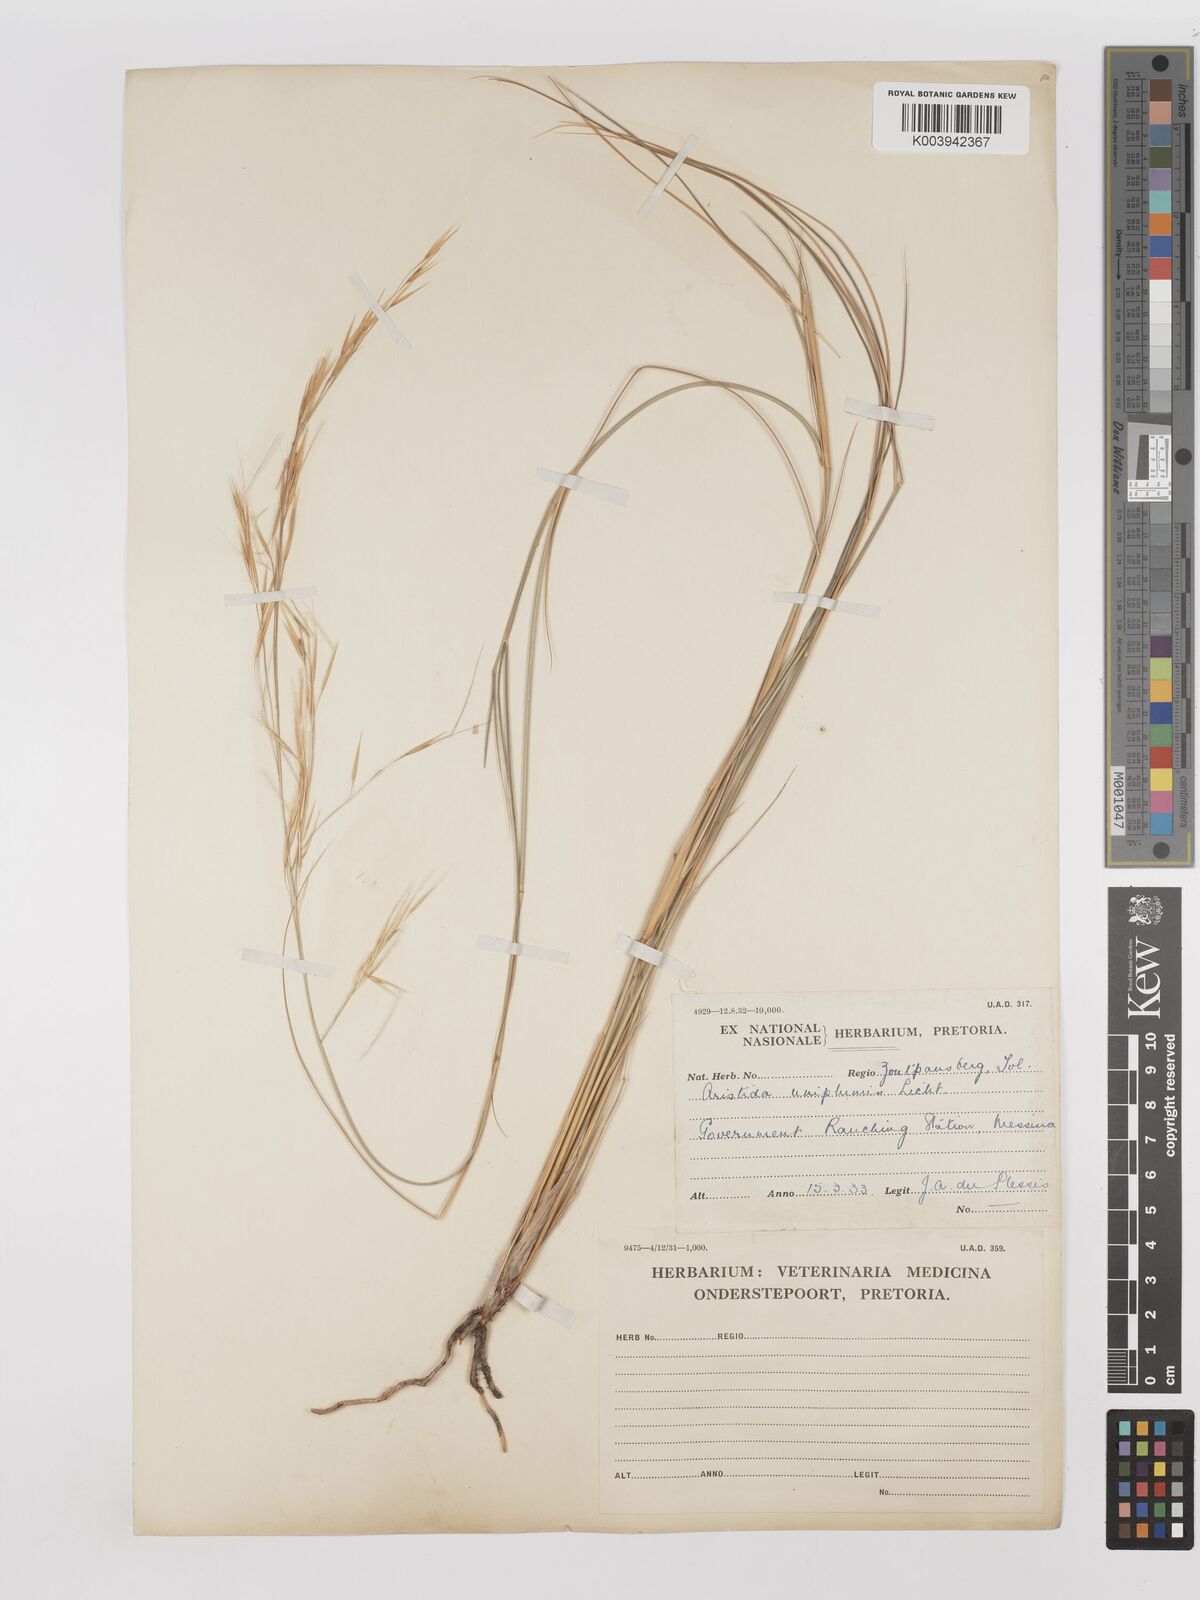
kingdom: Plantae
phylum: Tracheophyta
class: Liliopsida
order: Poales
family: Poaceae
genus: Stipagrostis
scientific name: Stipagrostis uniplumis
